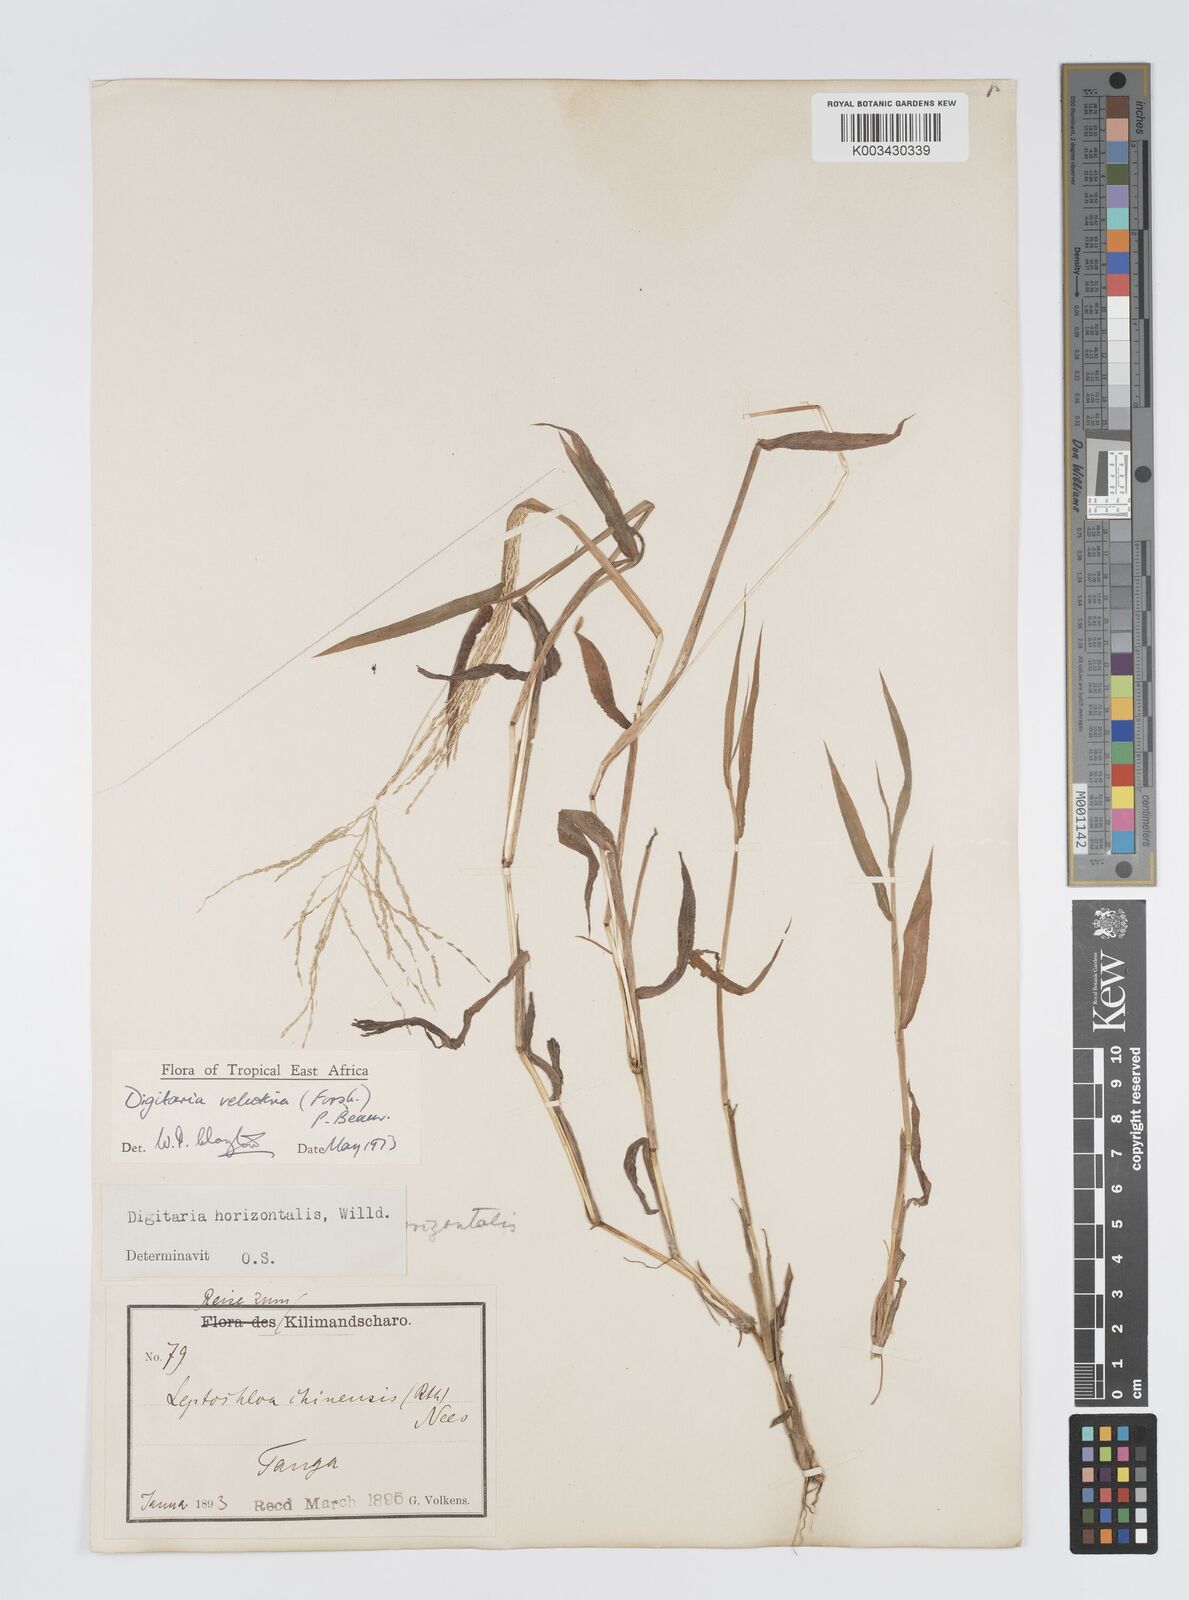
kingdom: Plantae
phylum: Tracheophyta
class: Liliopsida
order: Poales
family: Poaceae
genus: Digitaria
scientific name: Digitaria velutina
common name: Long-plume finger grass
